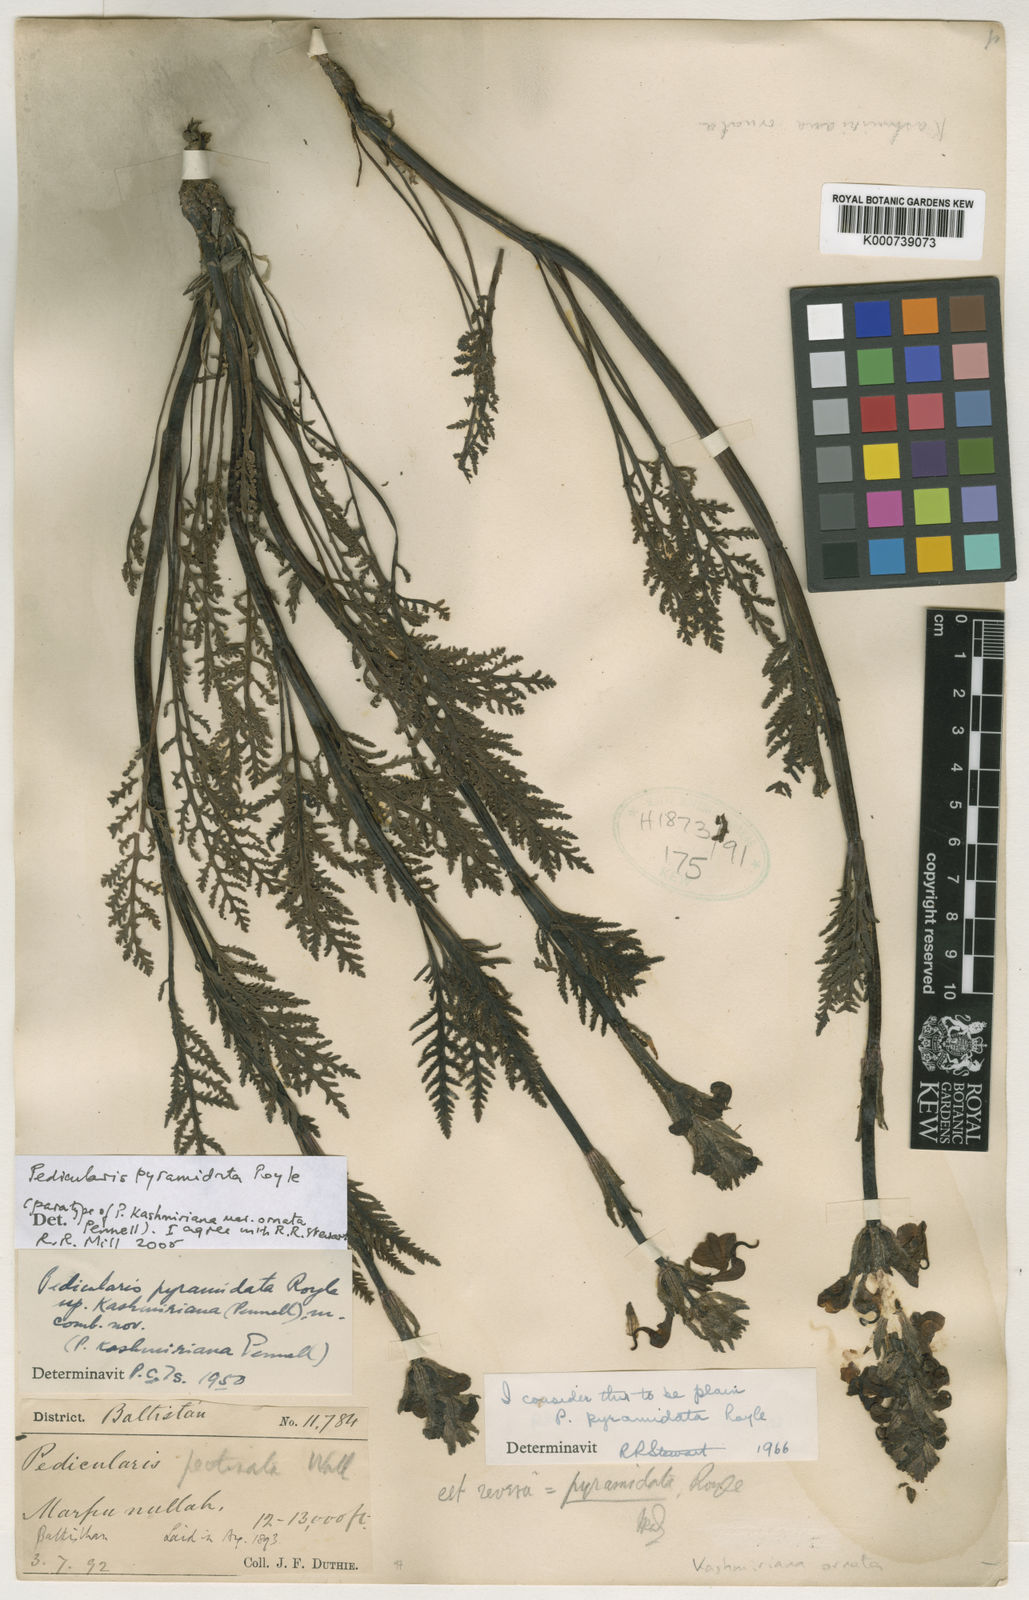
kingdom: Plantae
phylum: Tracheophyta
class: Magnoliopsida
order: Lamiales
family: Orobanchaceae
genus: Pedicularis
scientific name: Pedicularis
